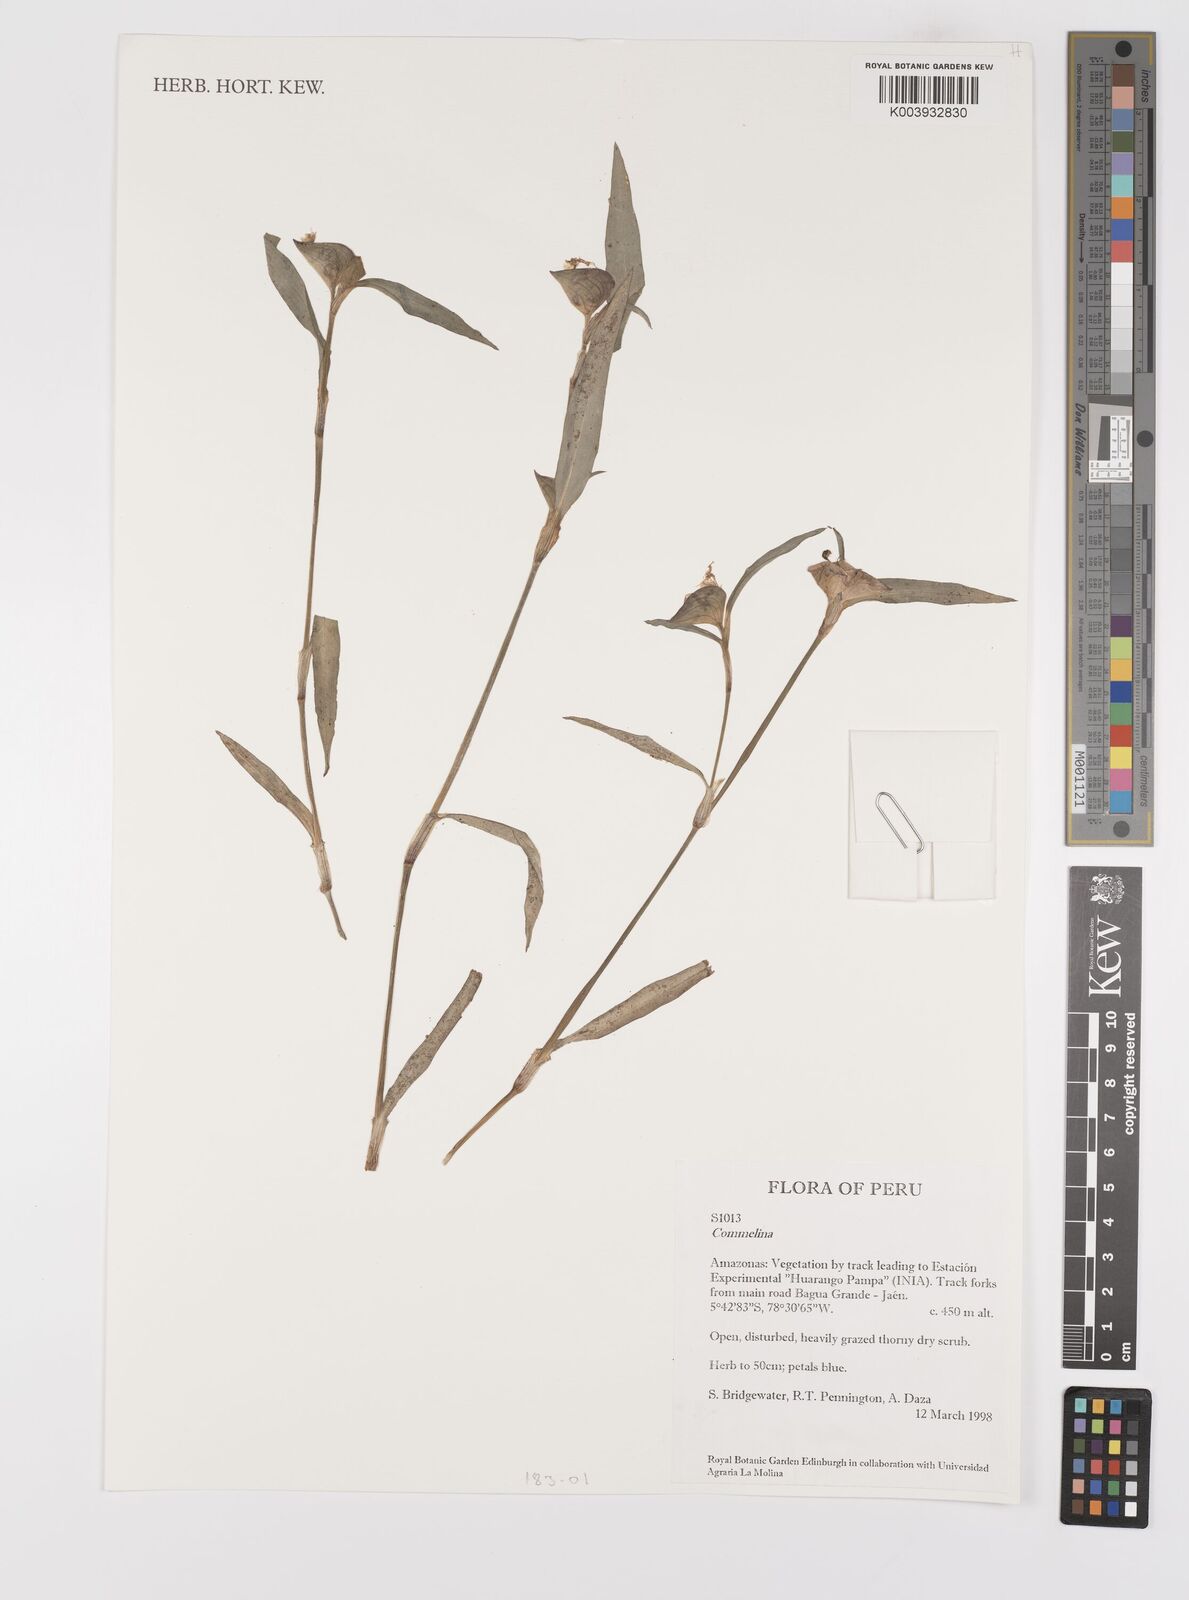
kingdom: Plantae
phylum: Tracheophyta
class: Liliopsida
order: Commelinales
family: Commelinaceae
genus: Commelina
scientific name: Commelina
